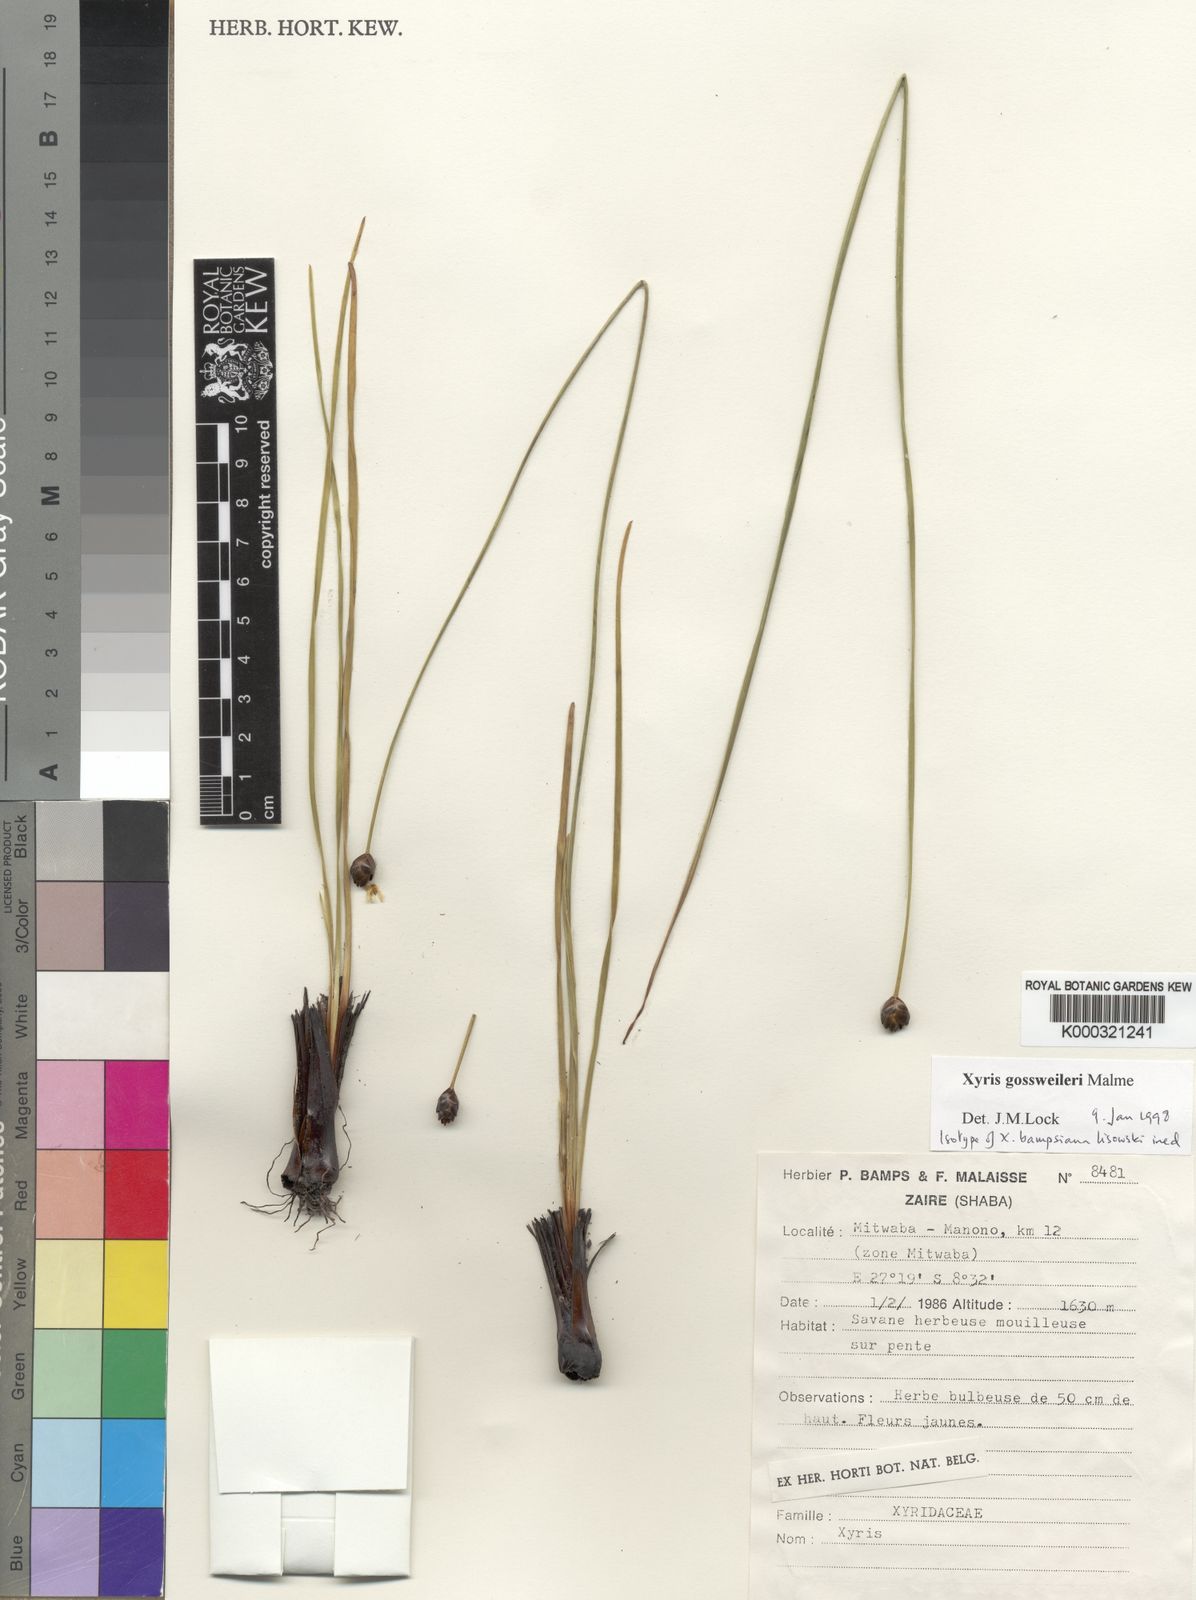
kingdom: Plantae
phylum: Tracheophyta
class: Liliopsida
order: Poales
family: Xyridaceae
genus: Xyris
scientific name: Xyris
